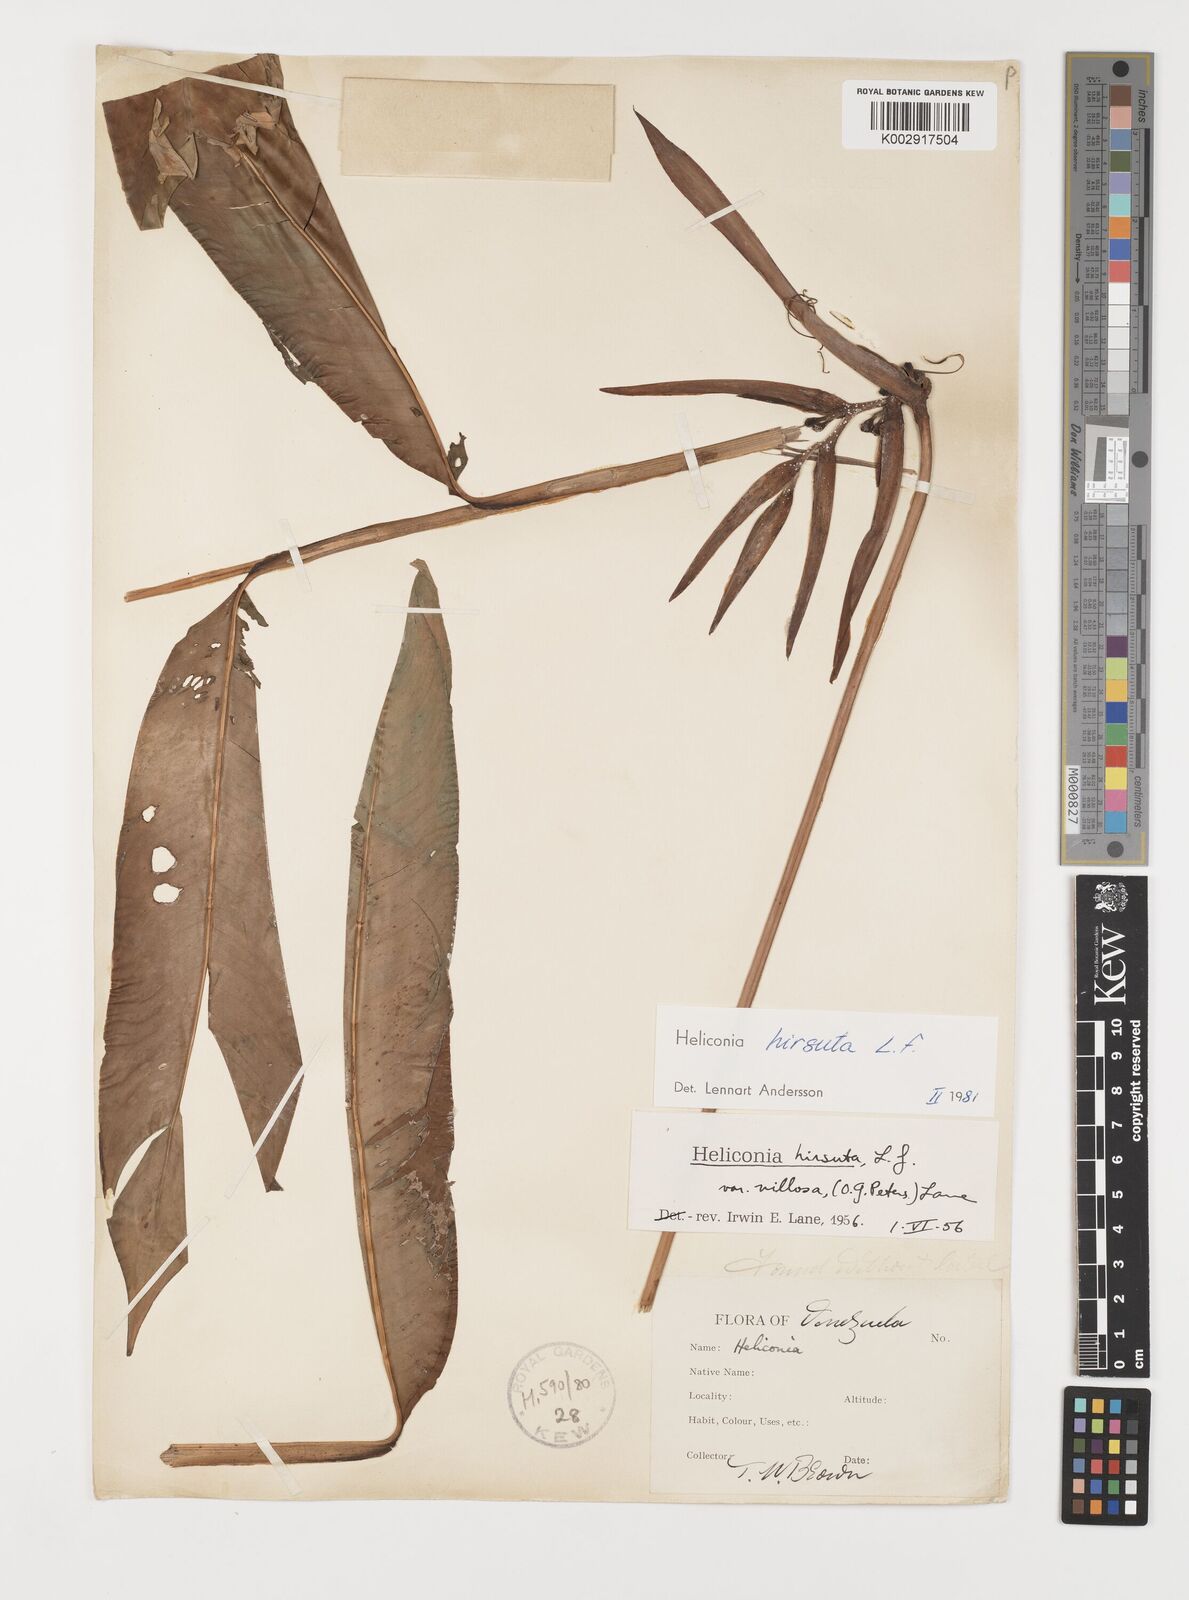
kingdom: Plantae
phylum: Tracheophyta
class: Liliopsida
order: Zingiberales
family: Heliconiaceae
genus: Heliconia
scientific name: Heliconia hirsuta
